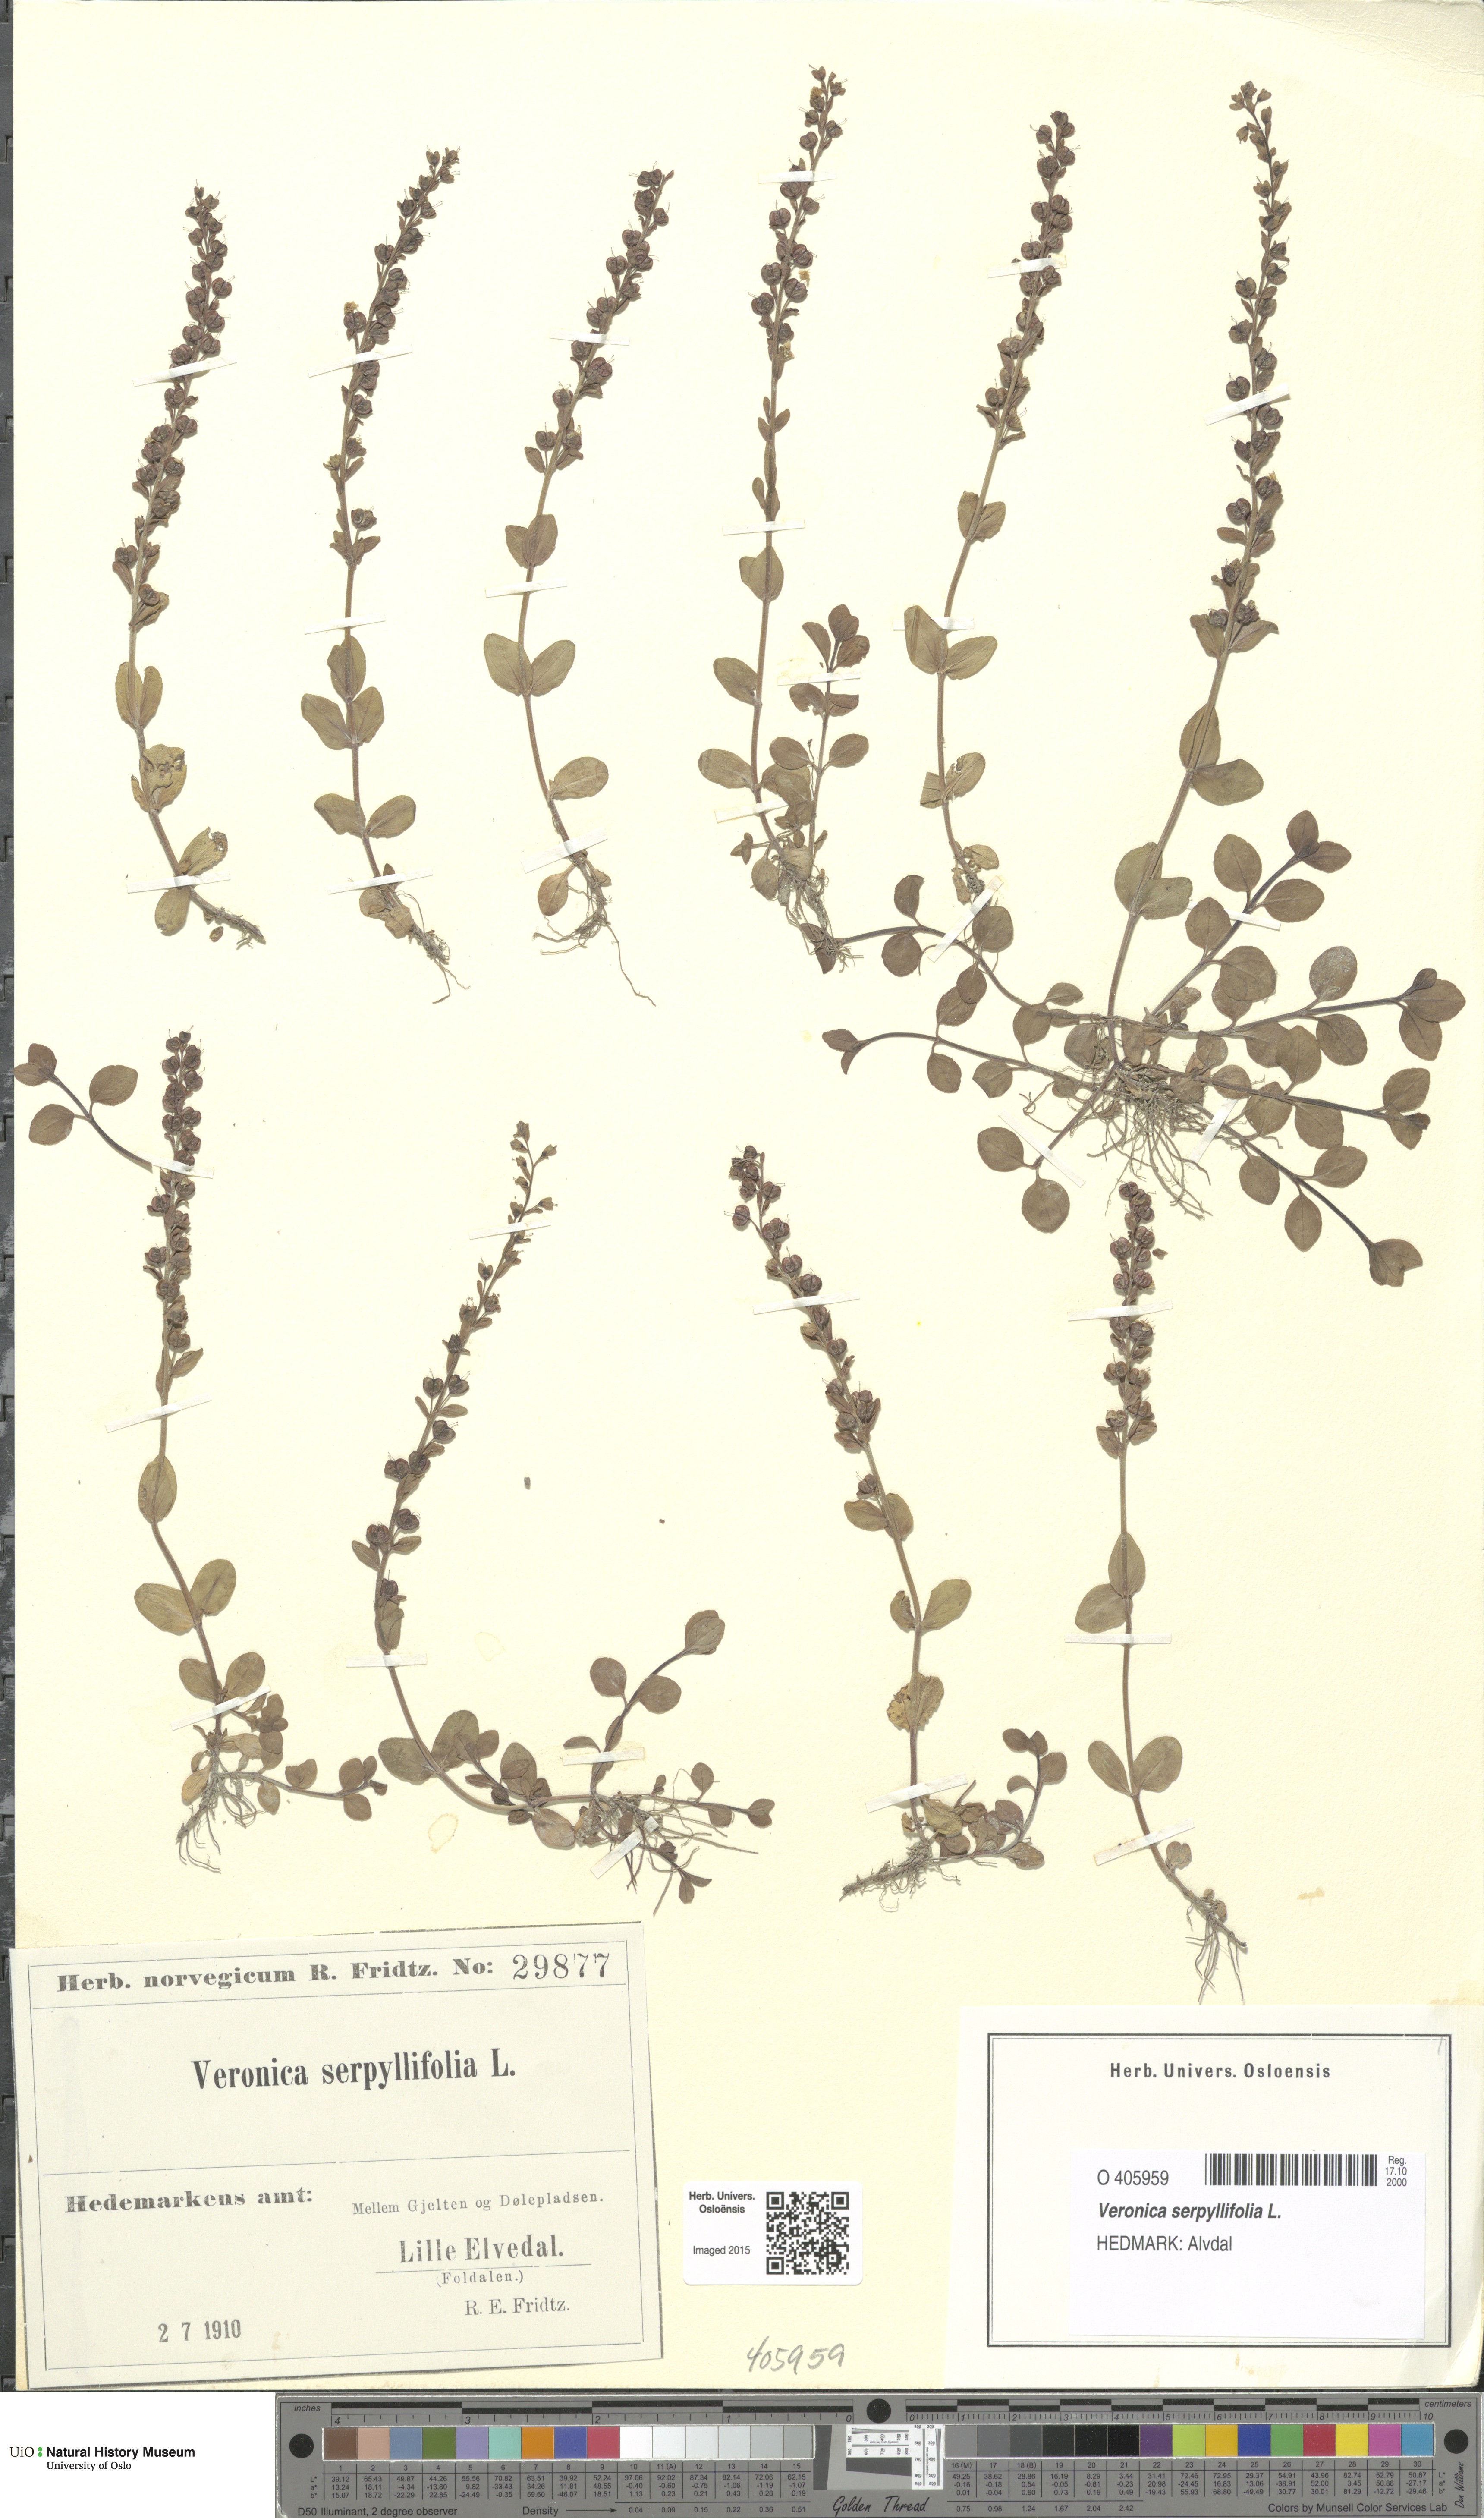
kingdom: Plantae
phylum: Tracheophyta
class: Magnoliopsida
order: Lamiales
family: Plantaginaceae
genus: Veronica
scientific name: Veronica serpyllifolia
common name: Thyme-leaved speedwell
